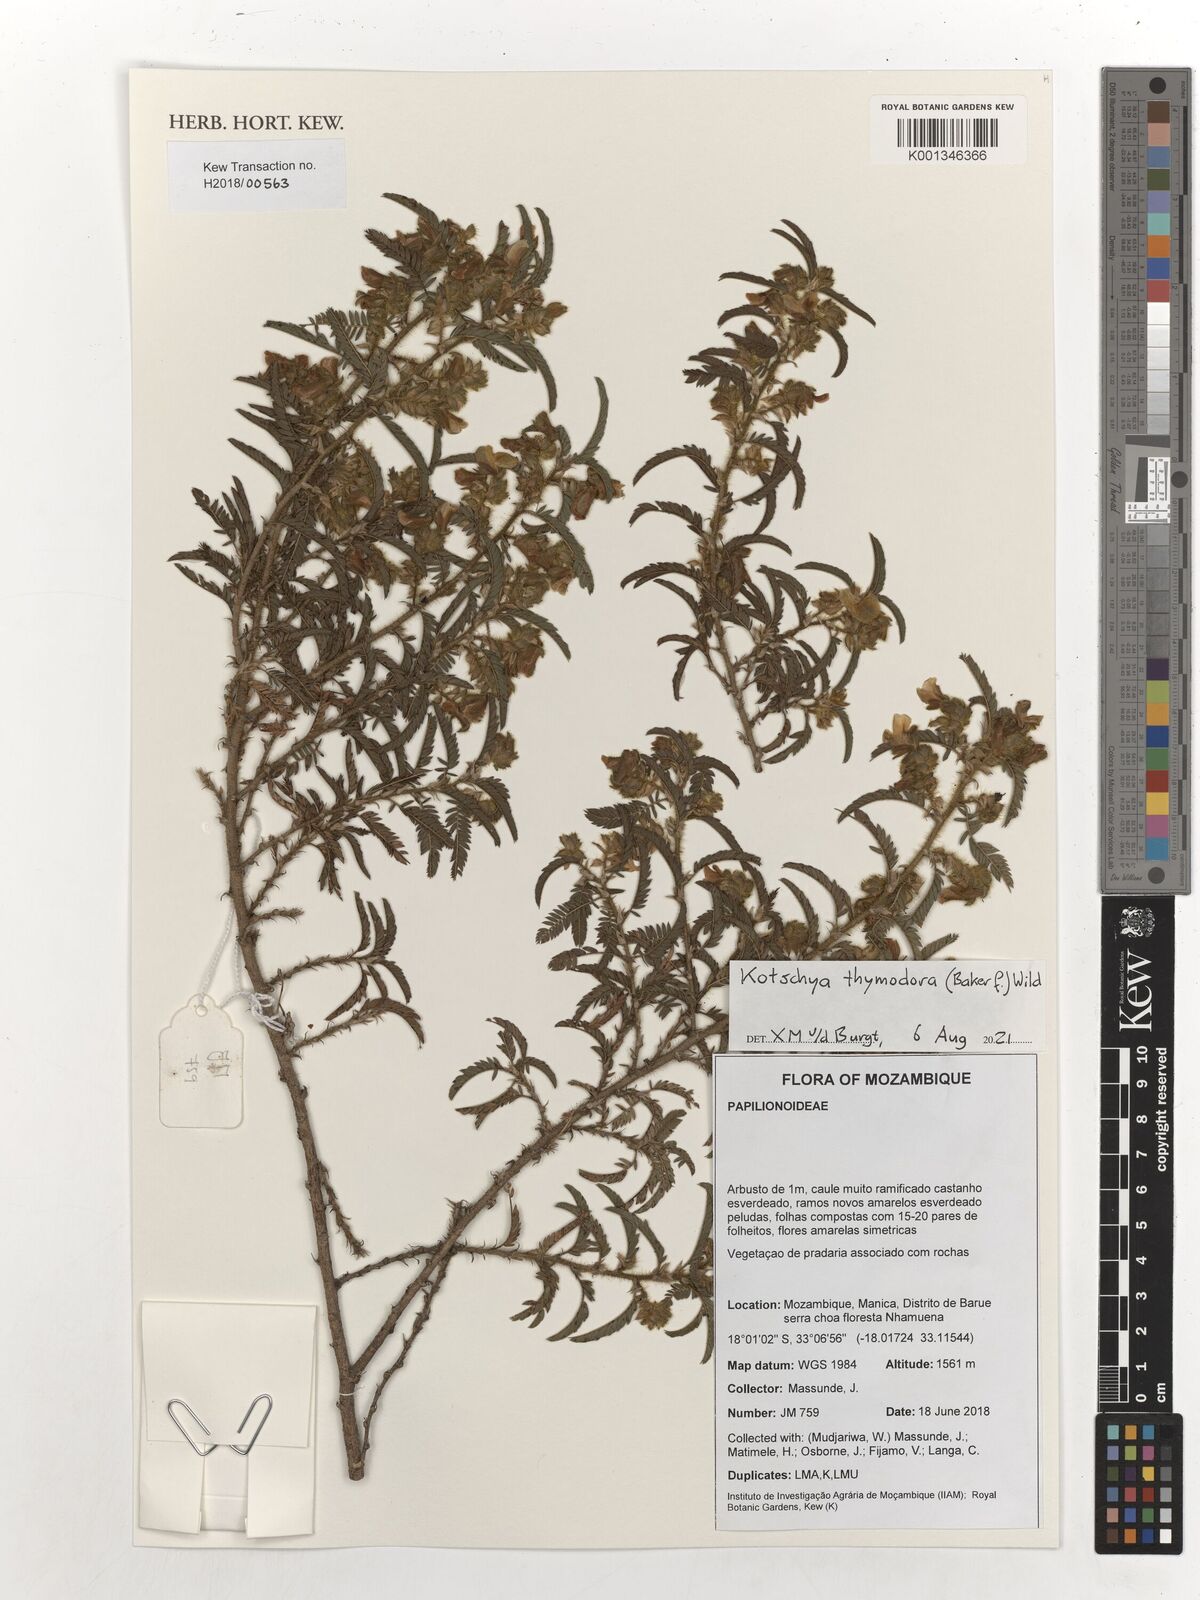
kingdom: Plantae
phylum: Tracheophyta
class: Magnoliopsida
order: Fabales
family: Fabaceae
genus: Kotschya
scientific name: Kotschya thymodora
